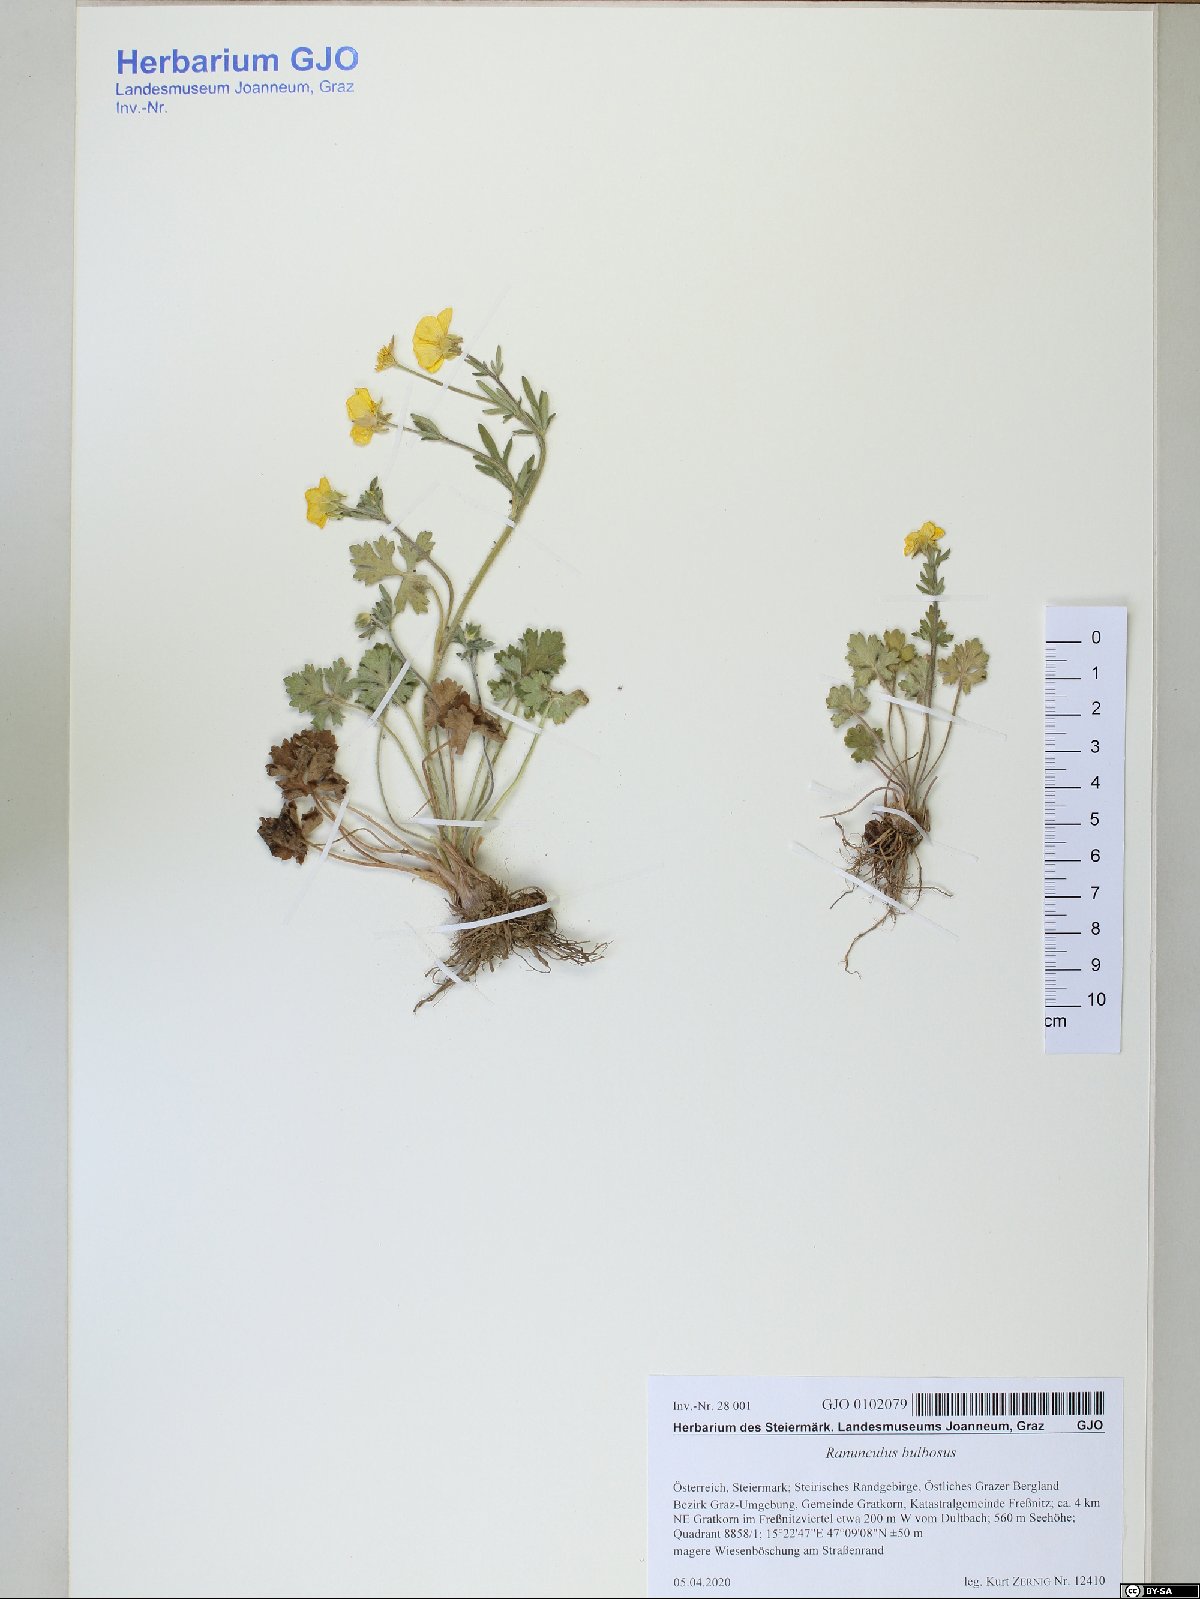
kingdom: Plantae
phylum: Tracheophyta
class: Magnoliopsida
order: Ranunculales
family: Ranunculaceae
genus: Ranunculus
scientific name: Ranunculus bulbosus
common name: Bulbous buttercup
